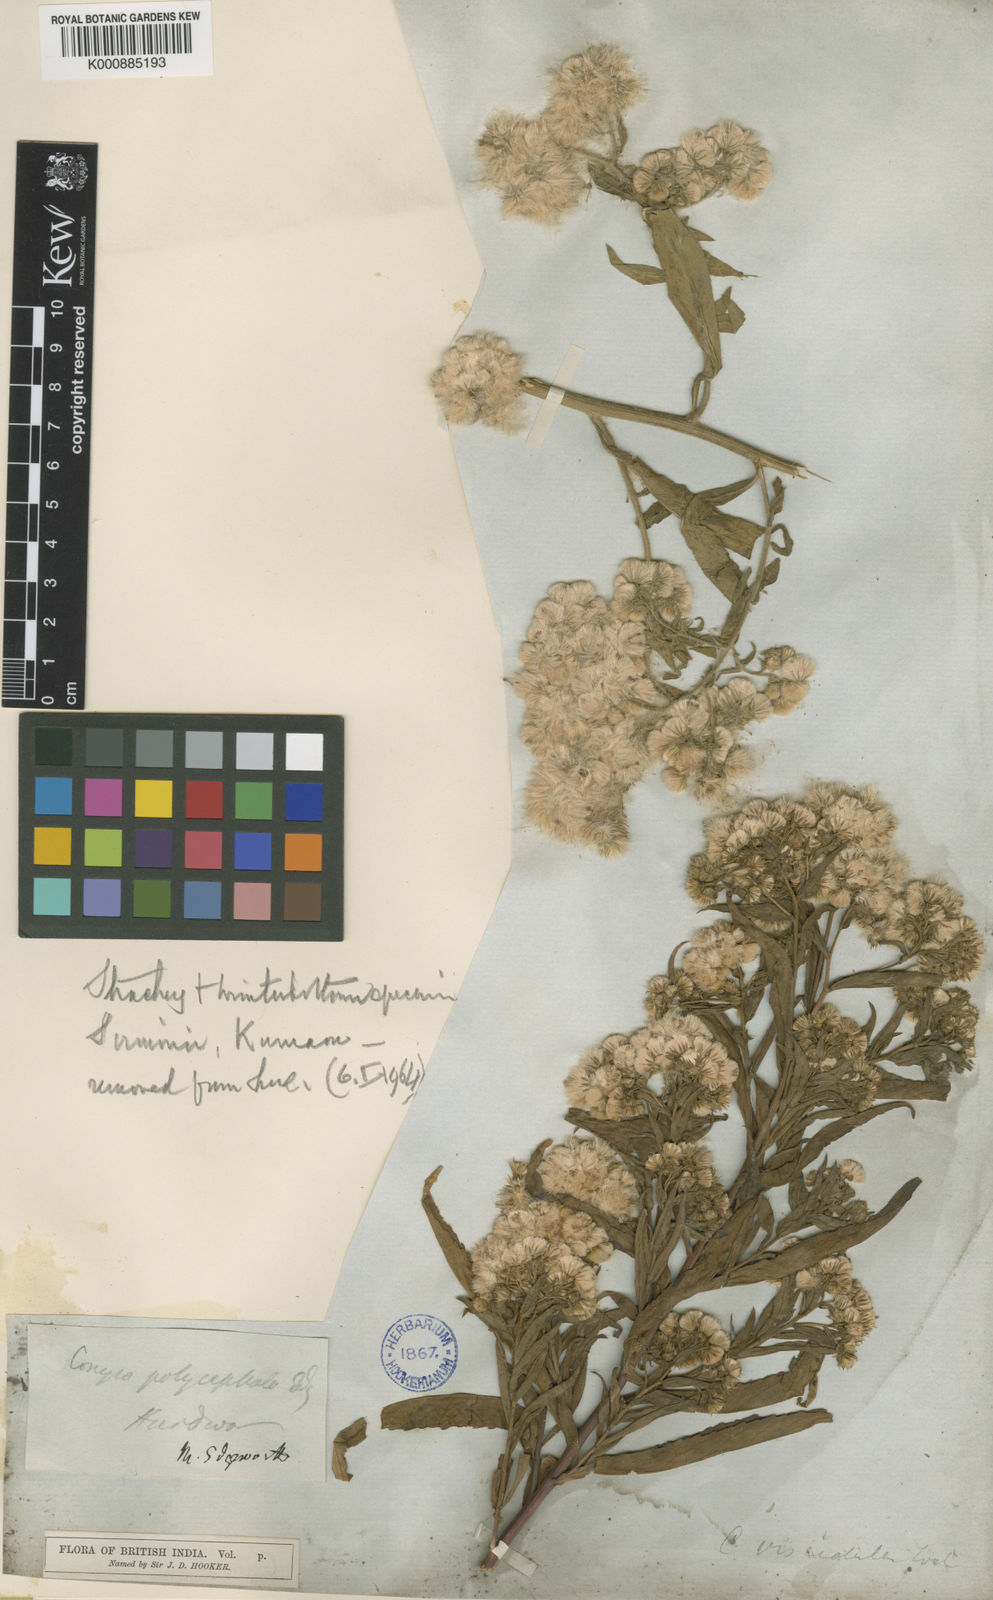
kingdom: Plantae
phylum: Tracheophyta
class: Magnoliopsida
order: Asterales
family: Asteraceae
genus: Eschenbachia
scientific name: Eschenbachia leucantha
